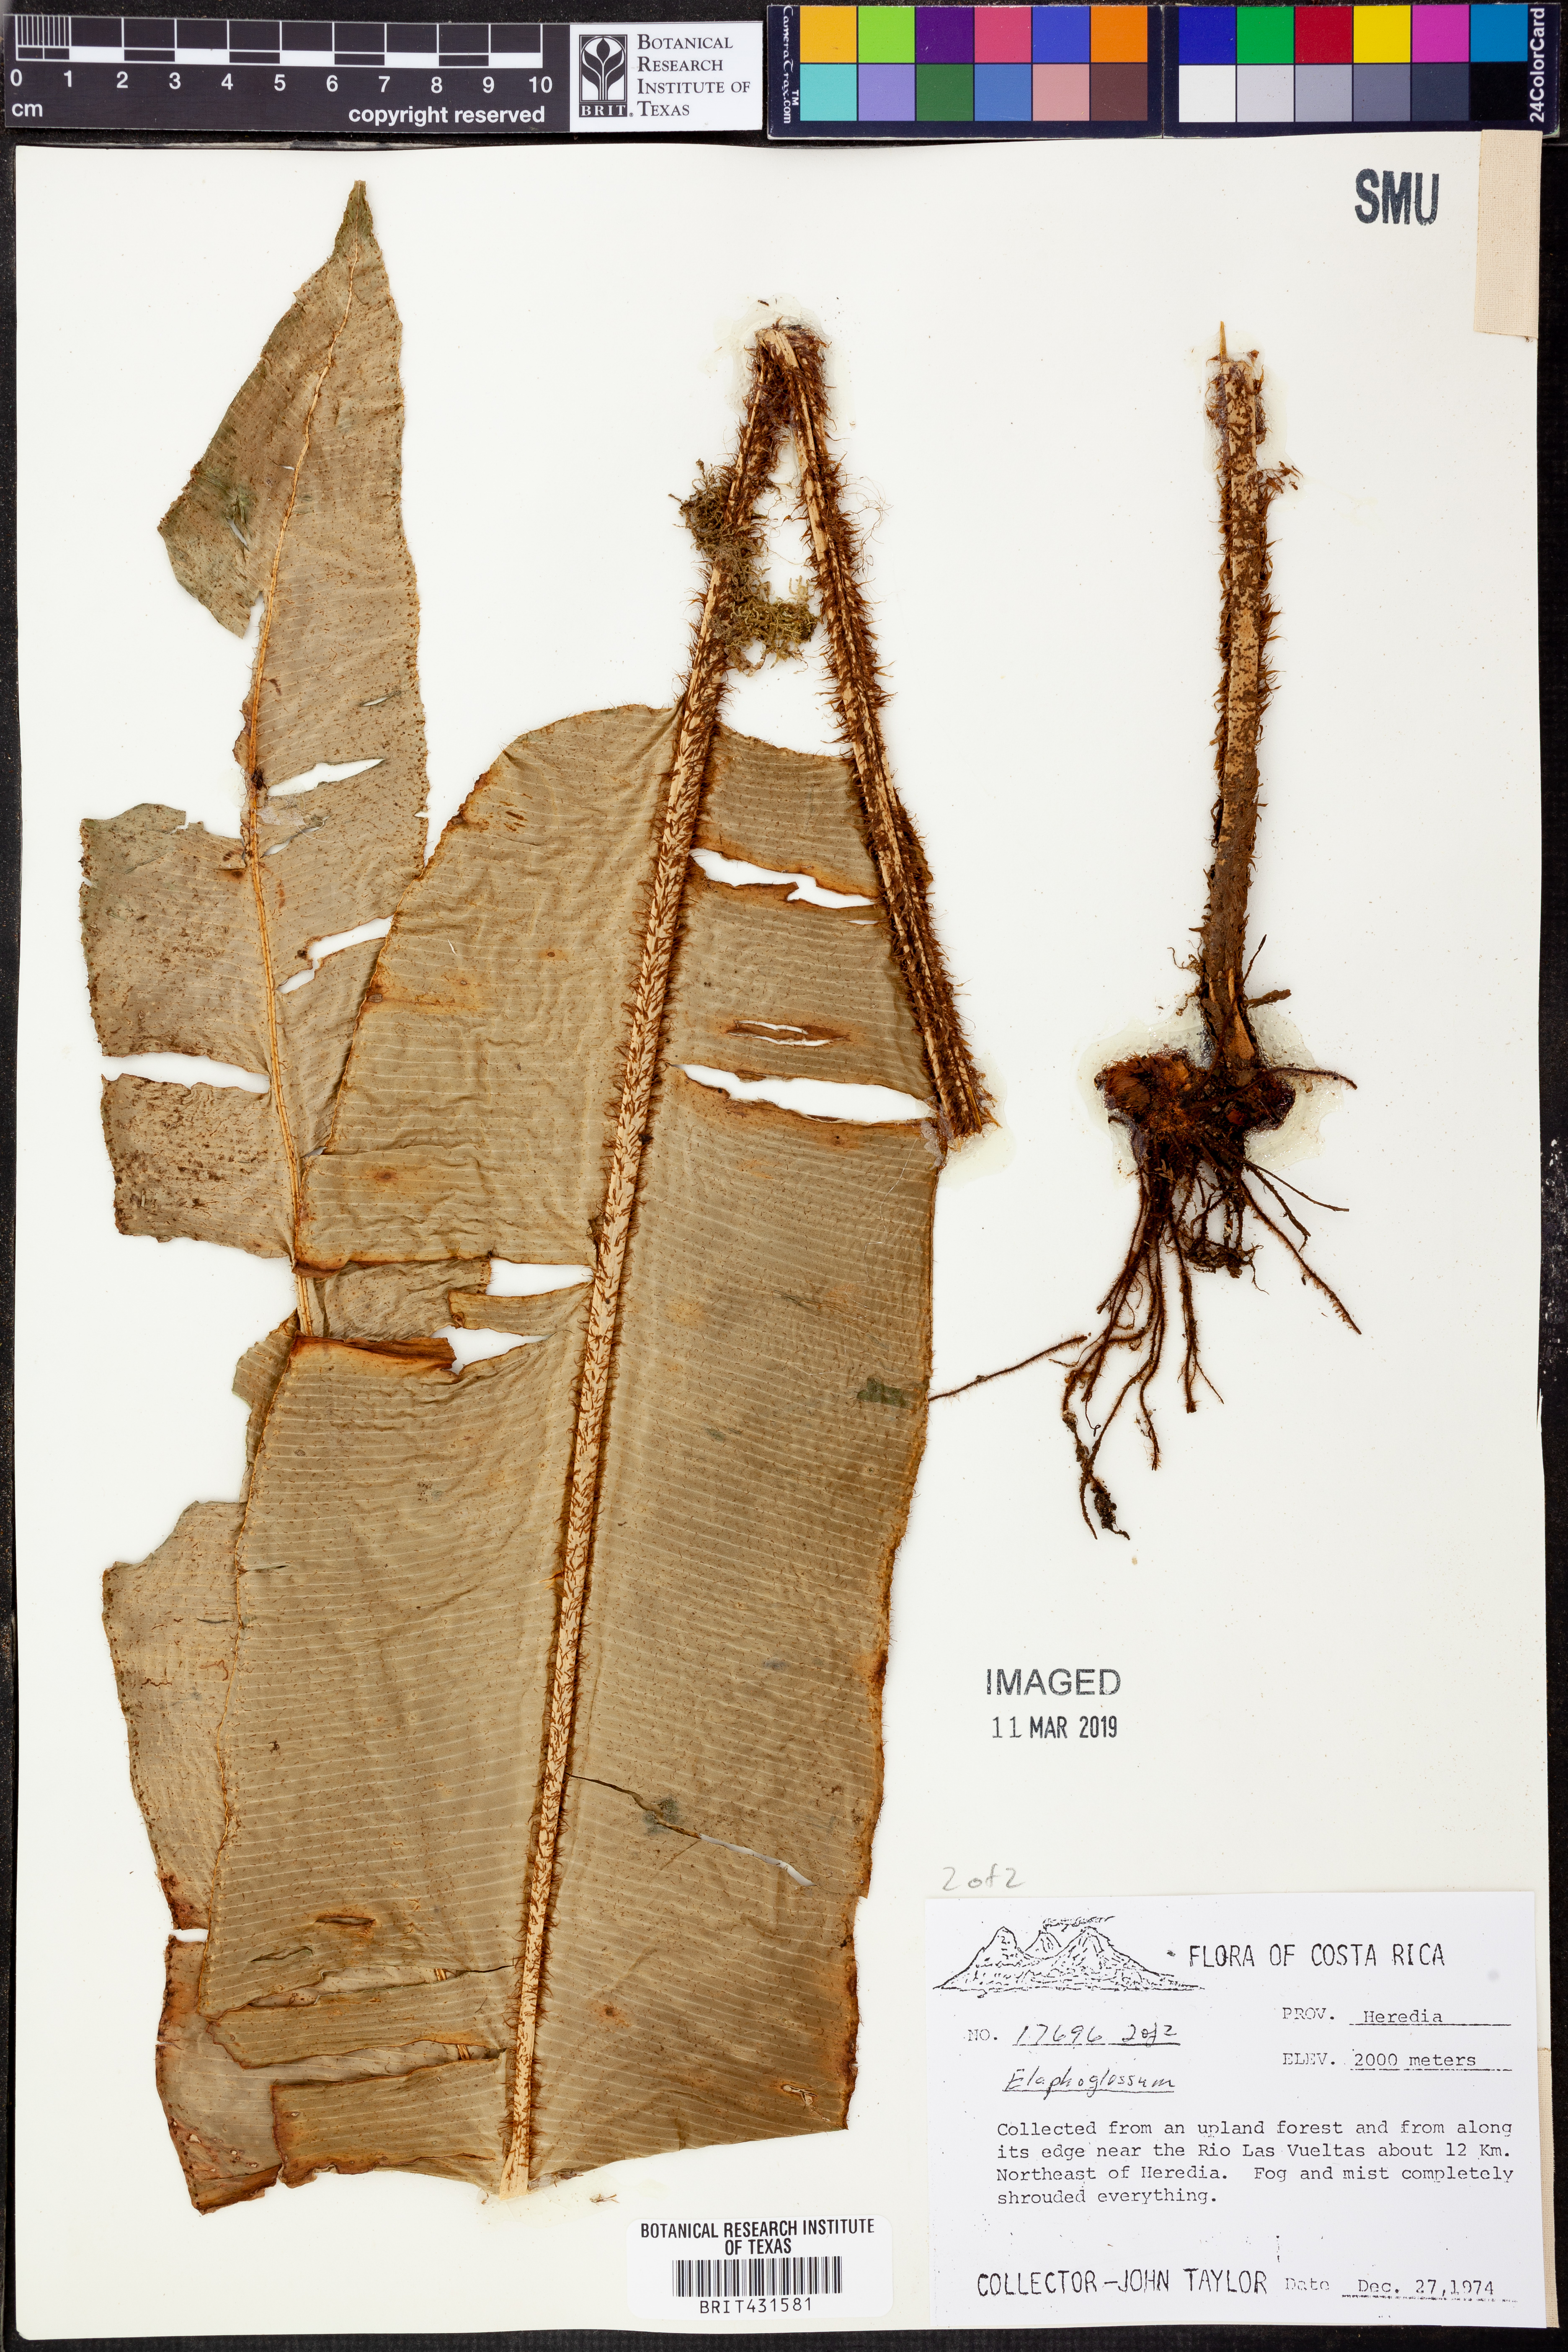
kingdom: Plantae
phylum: Tracheophyta
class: Polypodiopsida
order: Polypodiales
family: Dryopteridaceae
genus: Elaphoglossum
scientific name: Elaphoglossum bakeri
